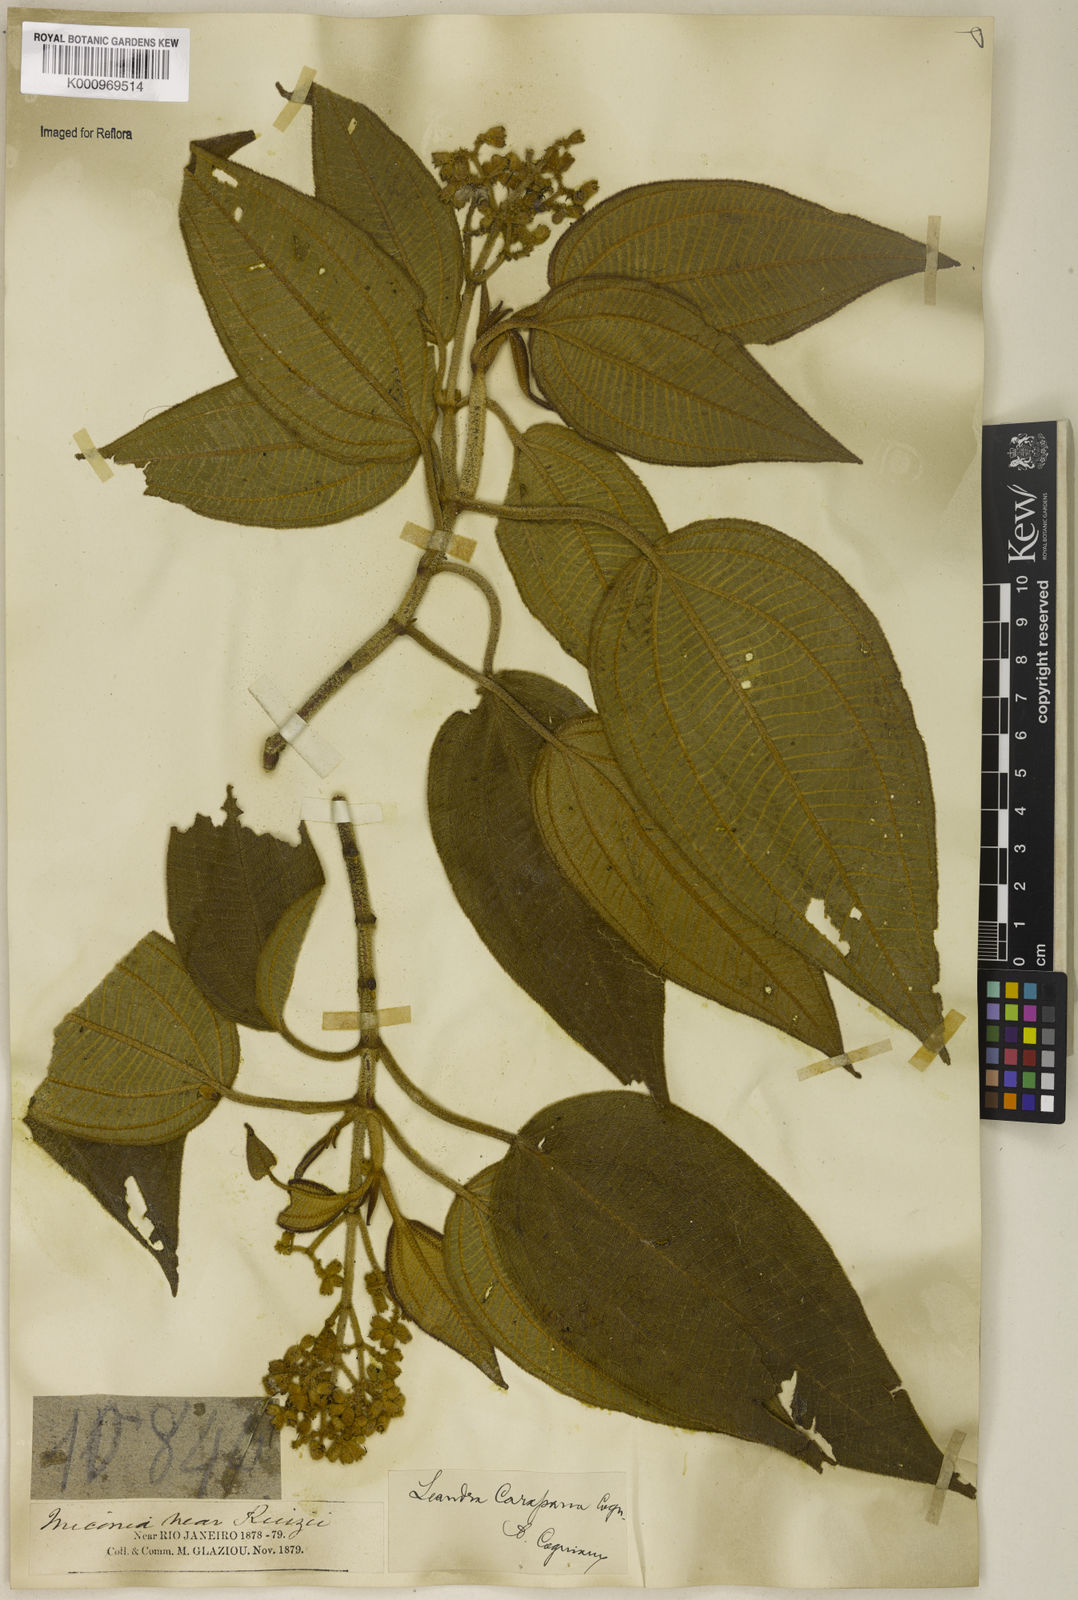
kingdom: Plantae
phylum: Tracheophyta
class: Magnoliopsida
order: Myrtales
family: Melastomataceae
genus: Miconia
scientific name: Miconia sublanata
